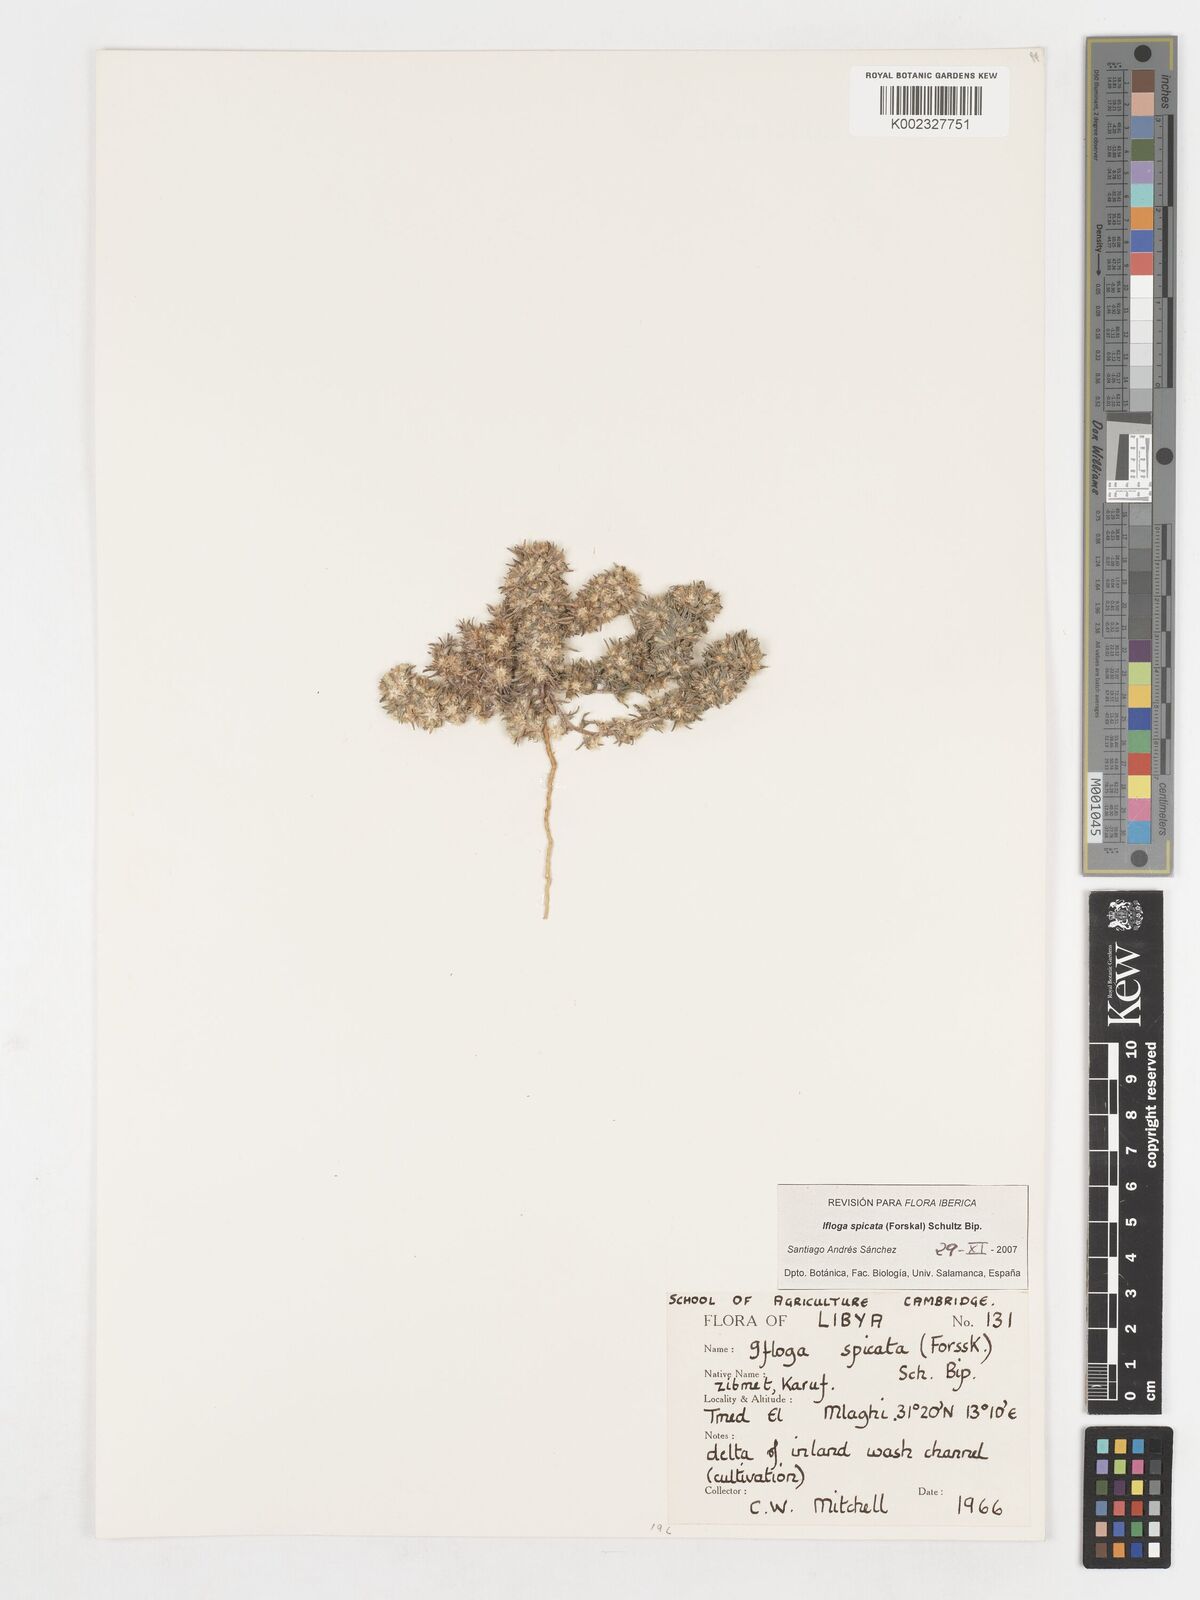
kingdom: Plantae
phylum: Tracheophyta
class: Magnoliopsida
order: Asterales
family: Asteraceae
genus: Ifloga
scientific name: Ifloga spicata
